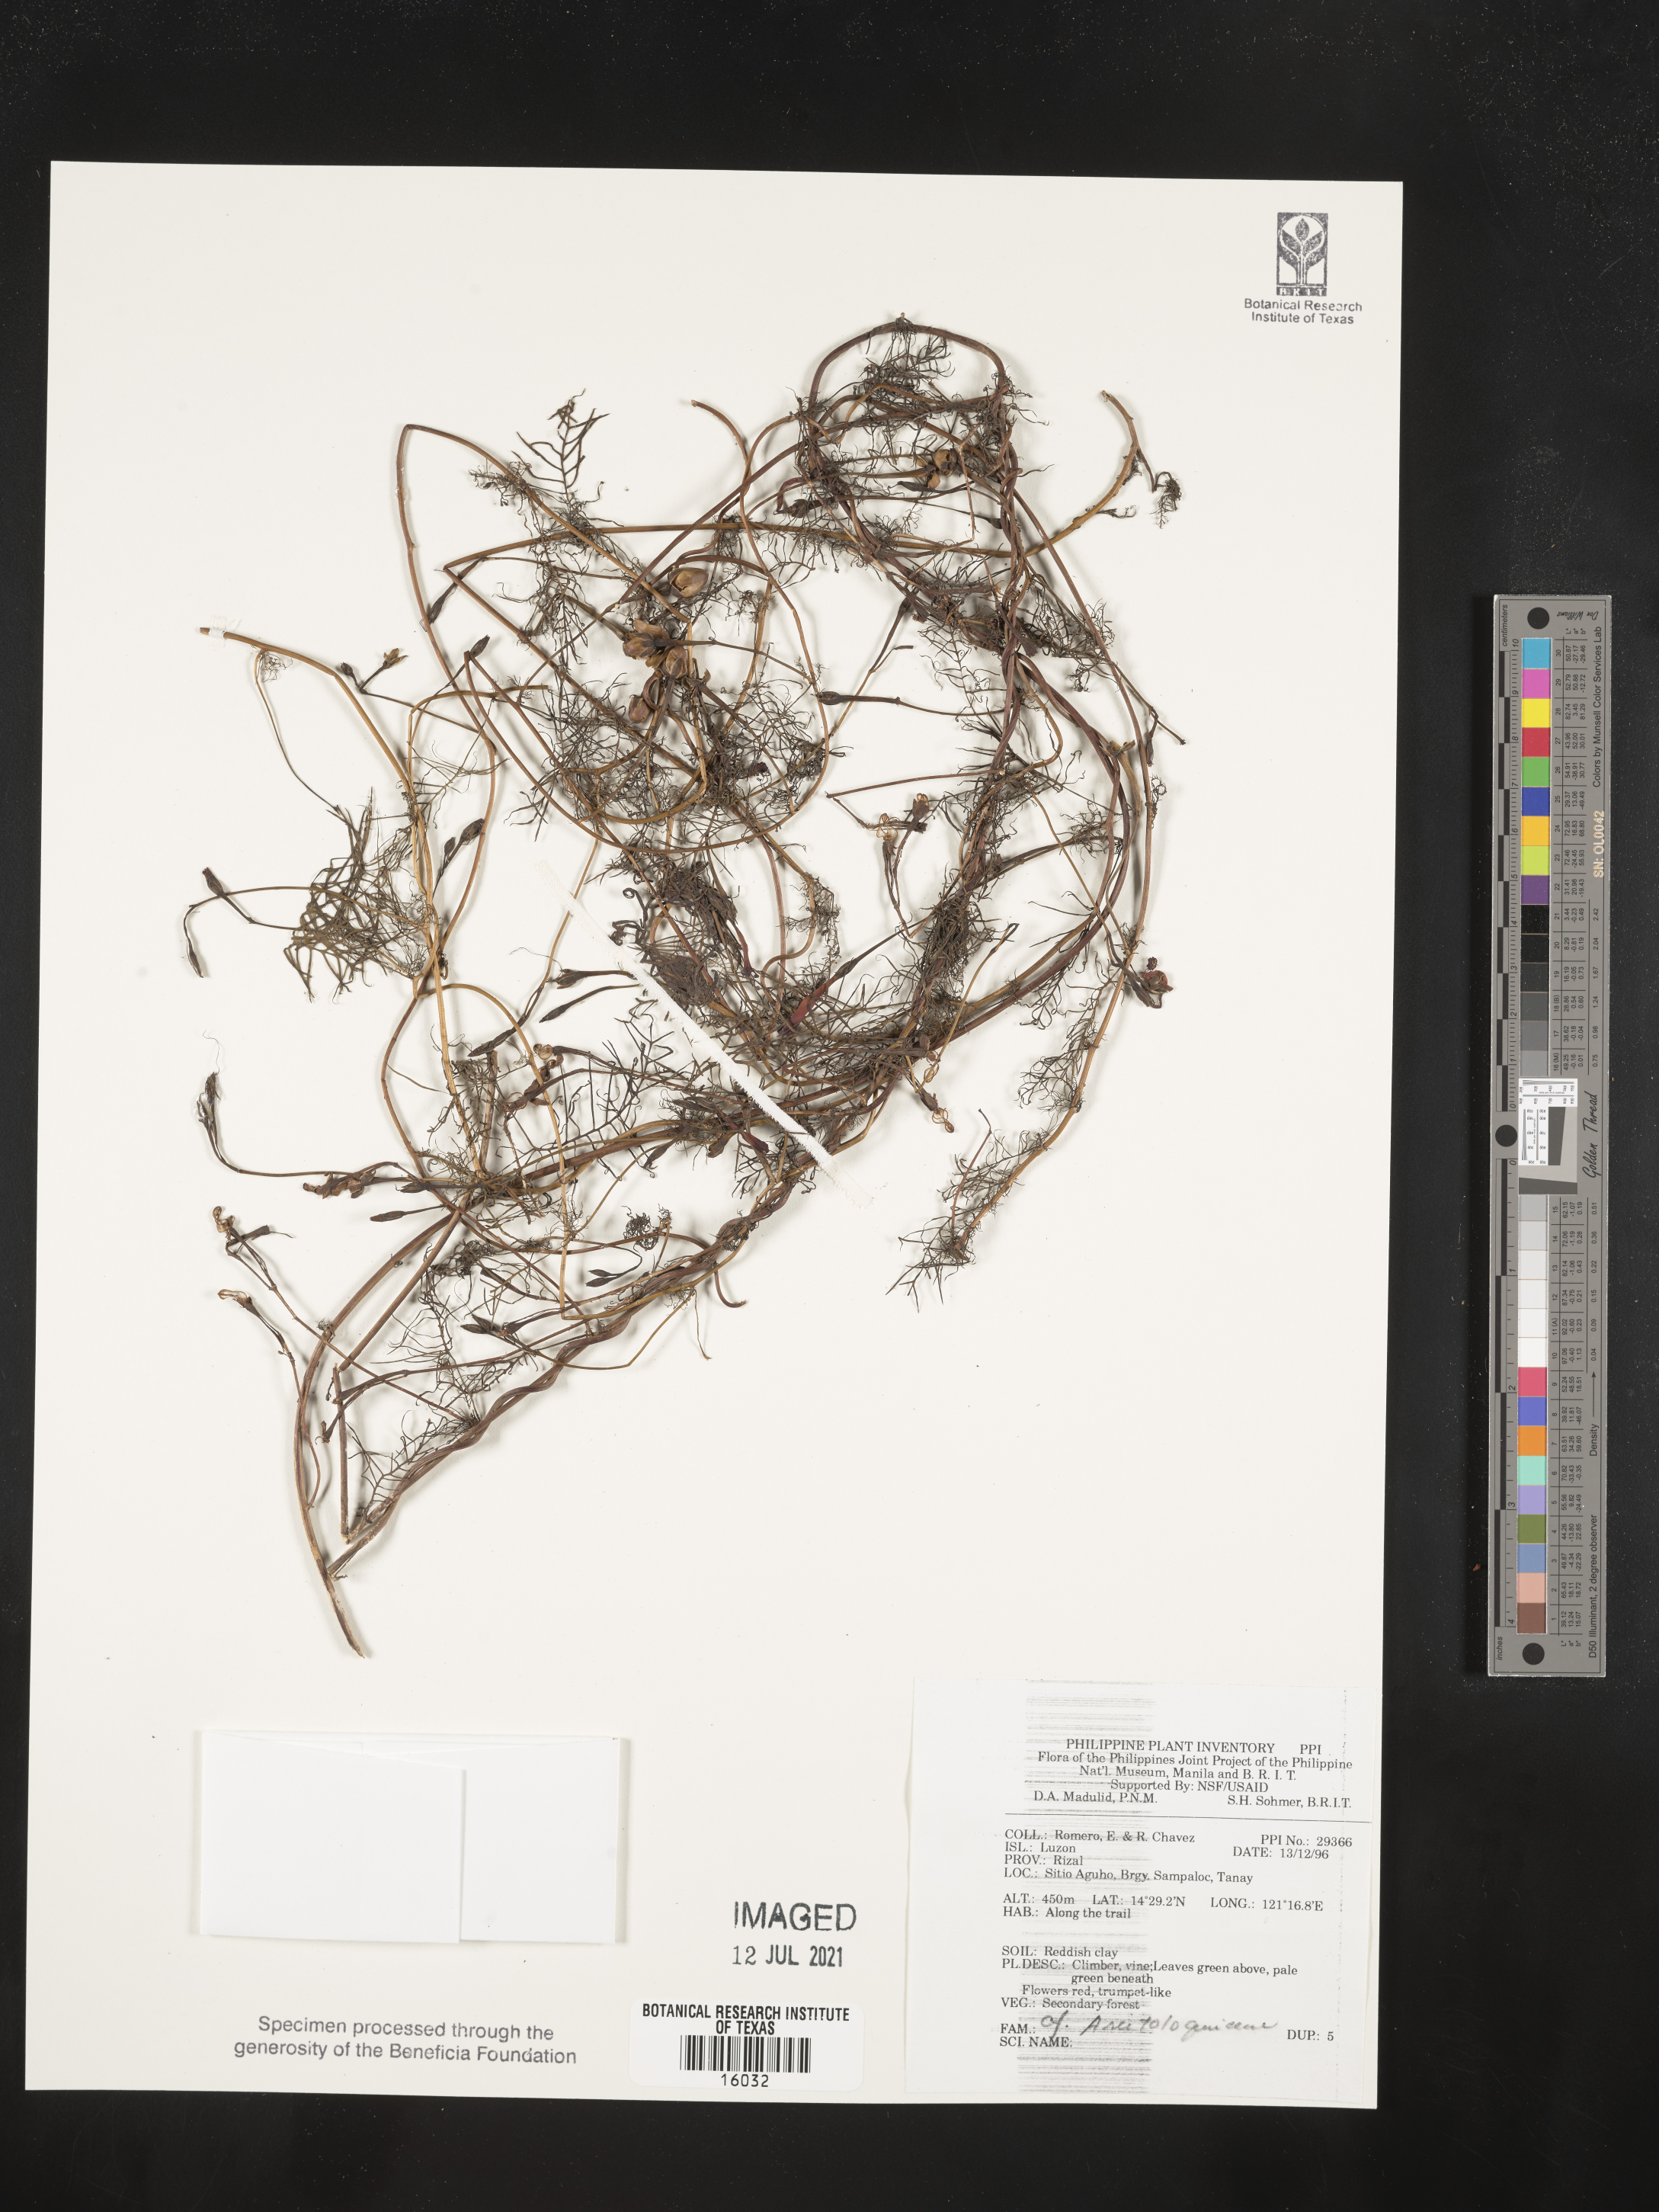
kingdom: Plantae
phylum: Tracheophyta
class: Magnoliopsida
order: Piperales
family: Aristolochiaceae
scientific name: Aristolochiaceae
